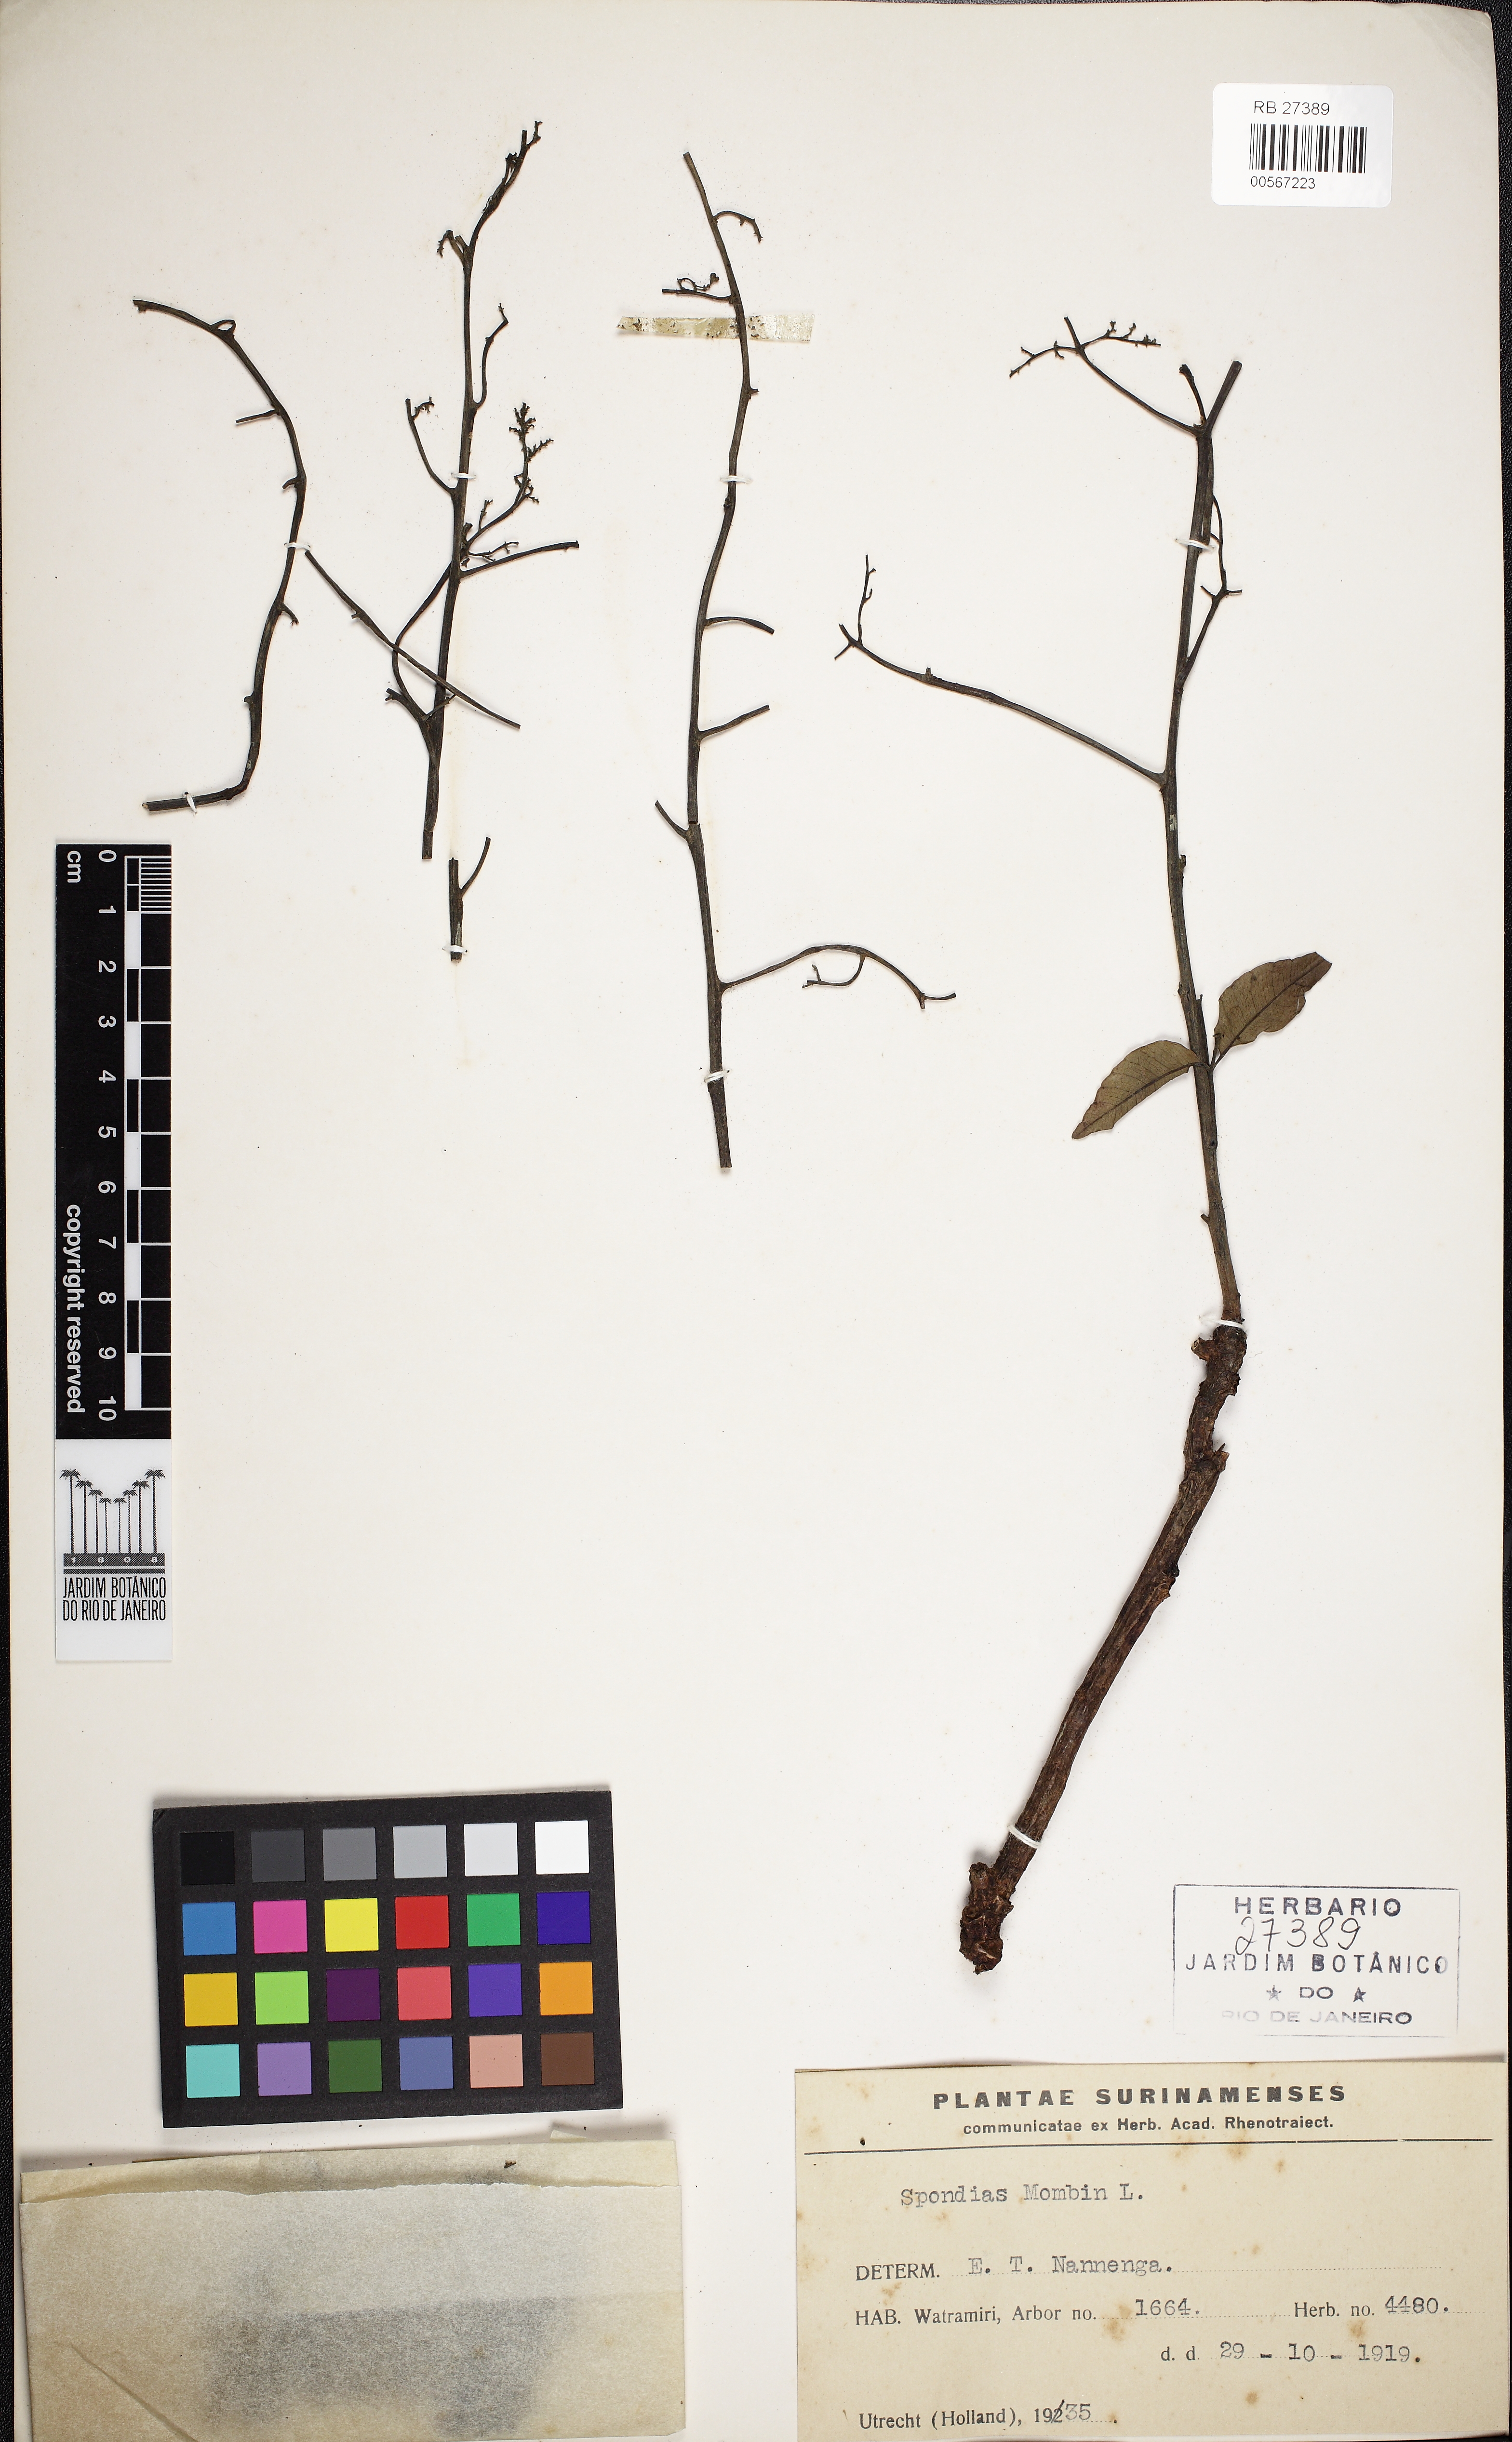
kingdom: Plantae
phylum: Tracheophyta
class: Magnoliopsida
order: Sapindales
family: Anacardiaceae
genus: Spondias
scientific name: Spondias mombin
